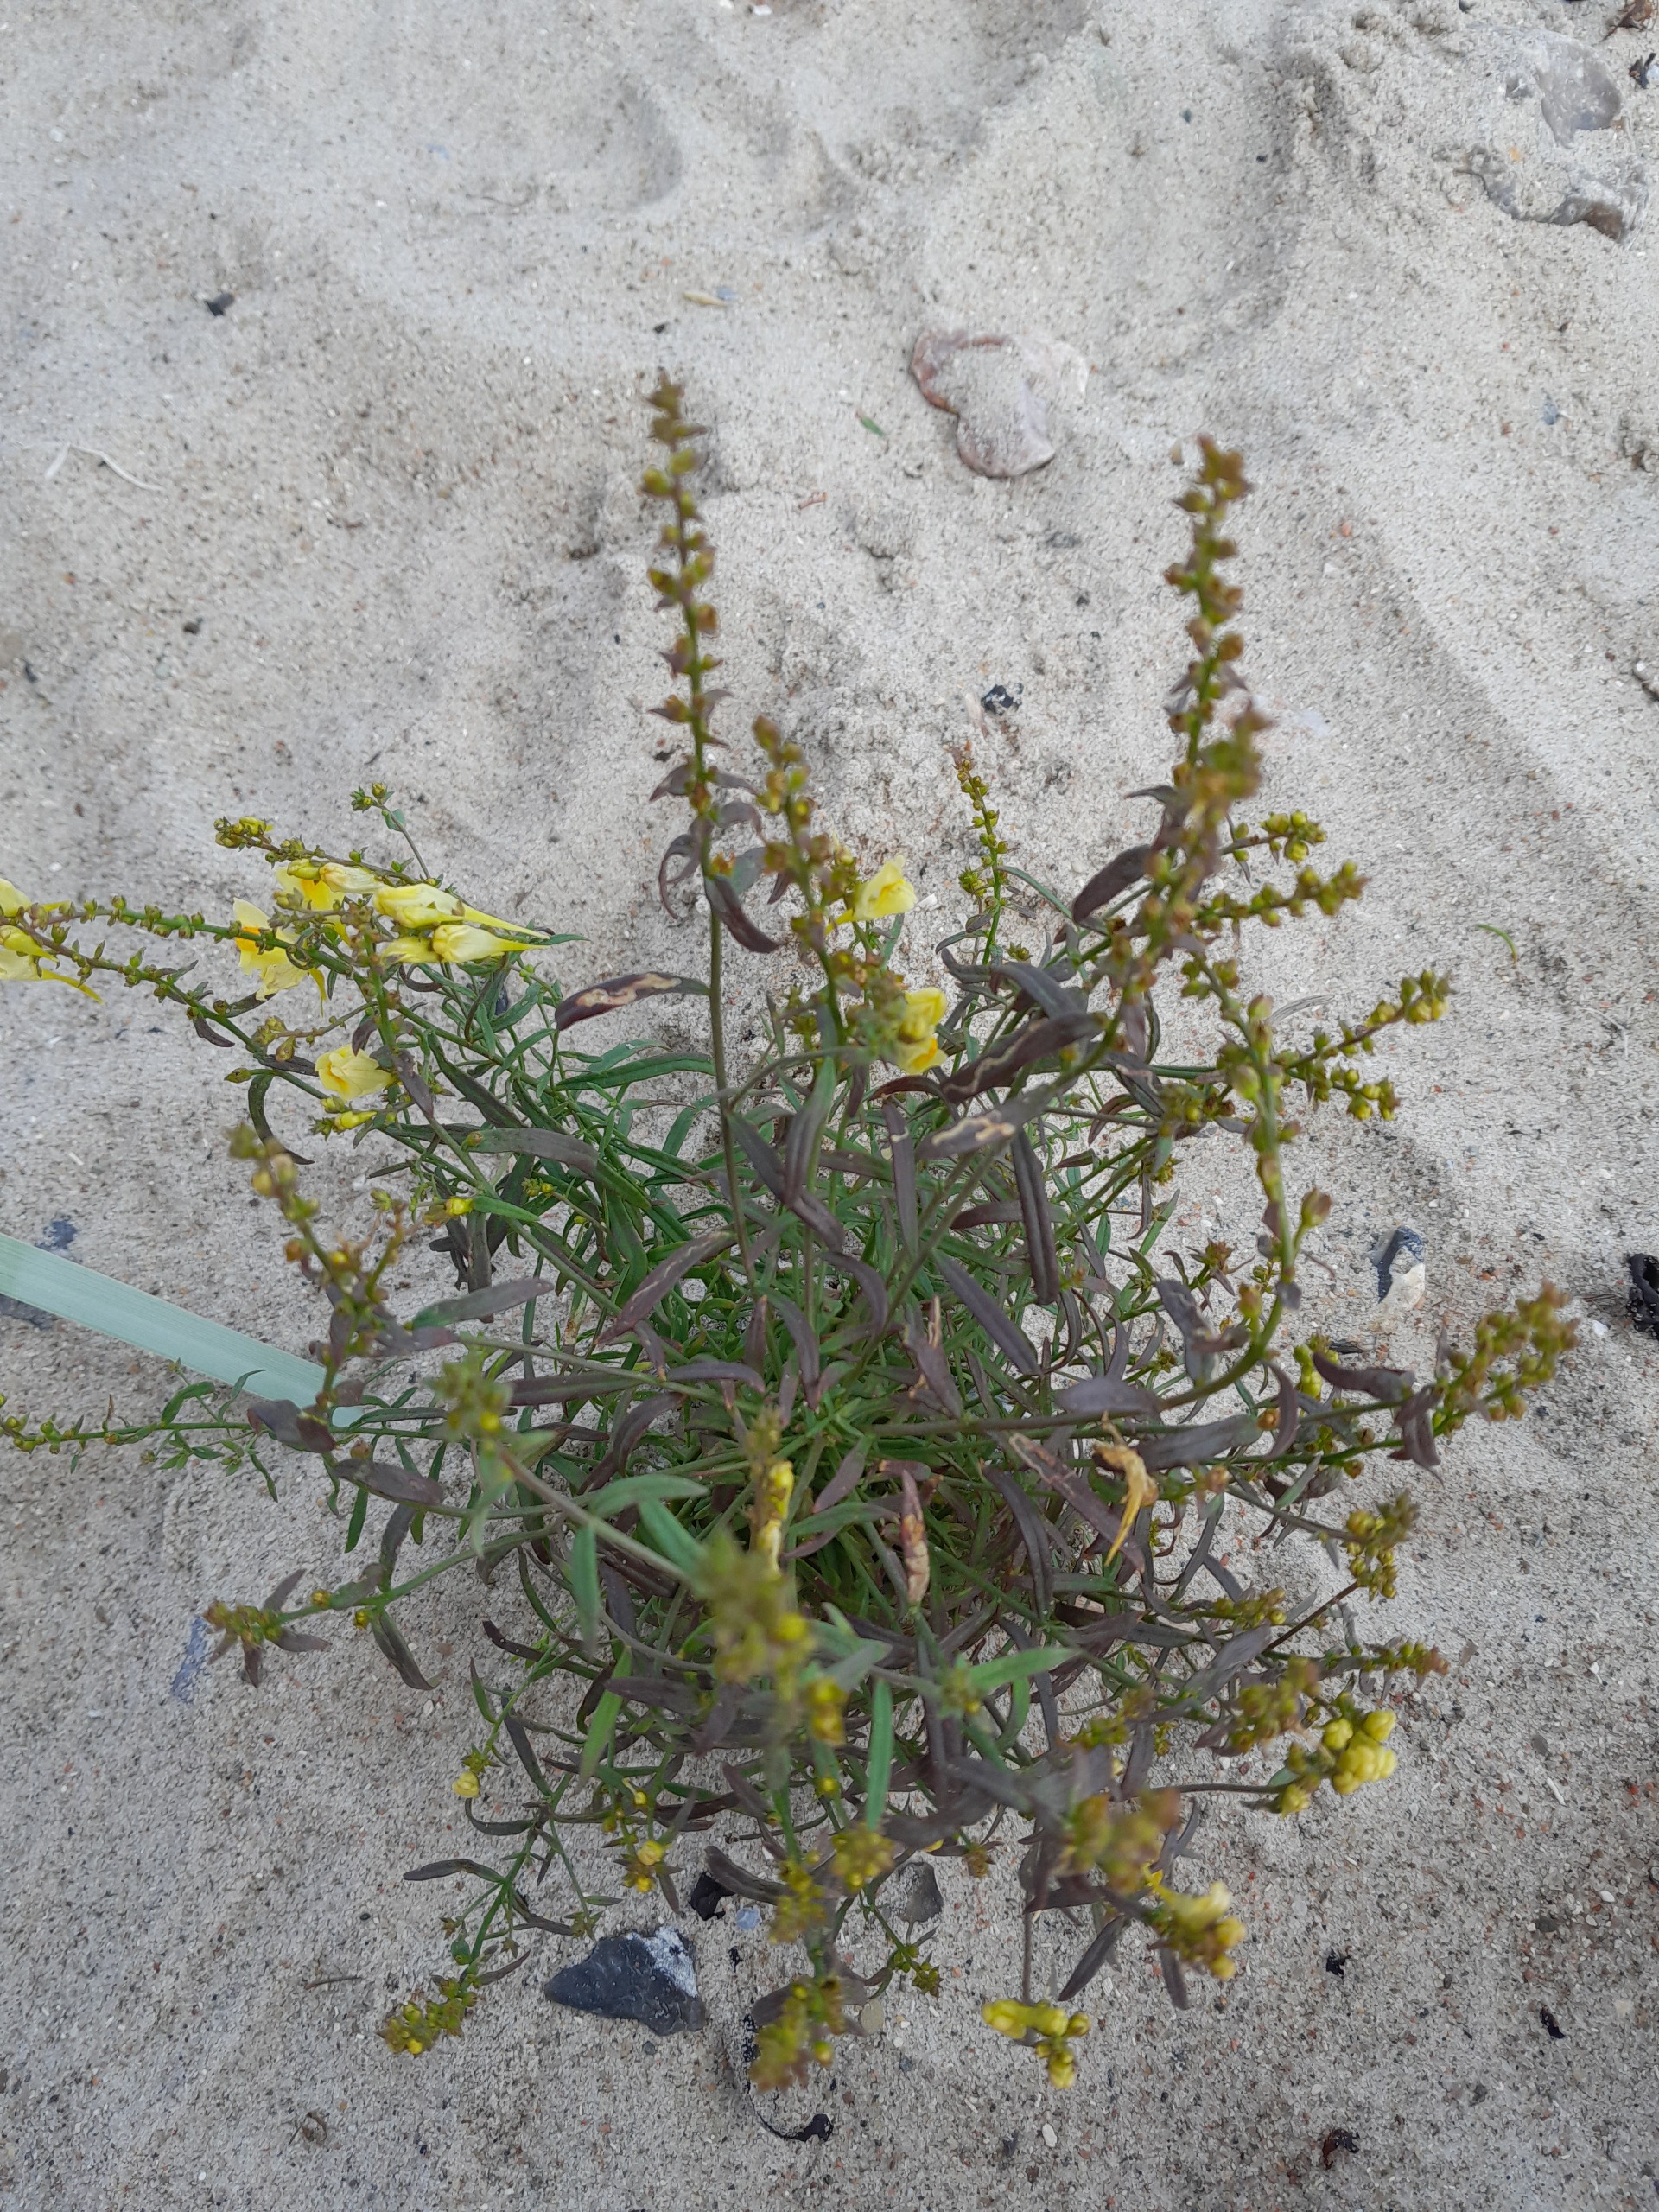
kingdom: Plantae
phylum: Tracheophyta
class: Magnoliopsida
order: Lamiales
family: Plantaginaceae
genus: Linaria
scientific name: Linaria vulgaris
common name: Almindelig torskemund
